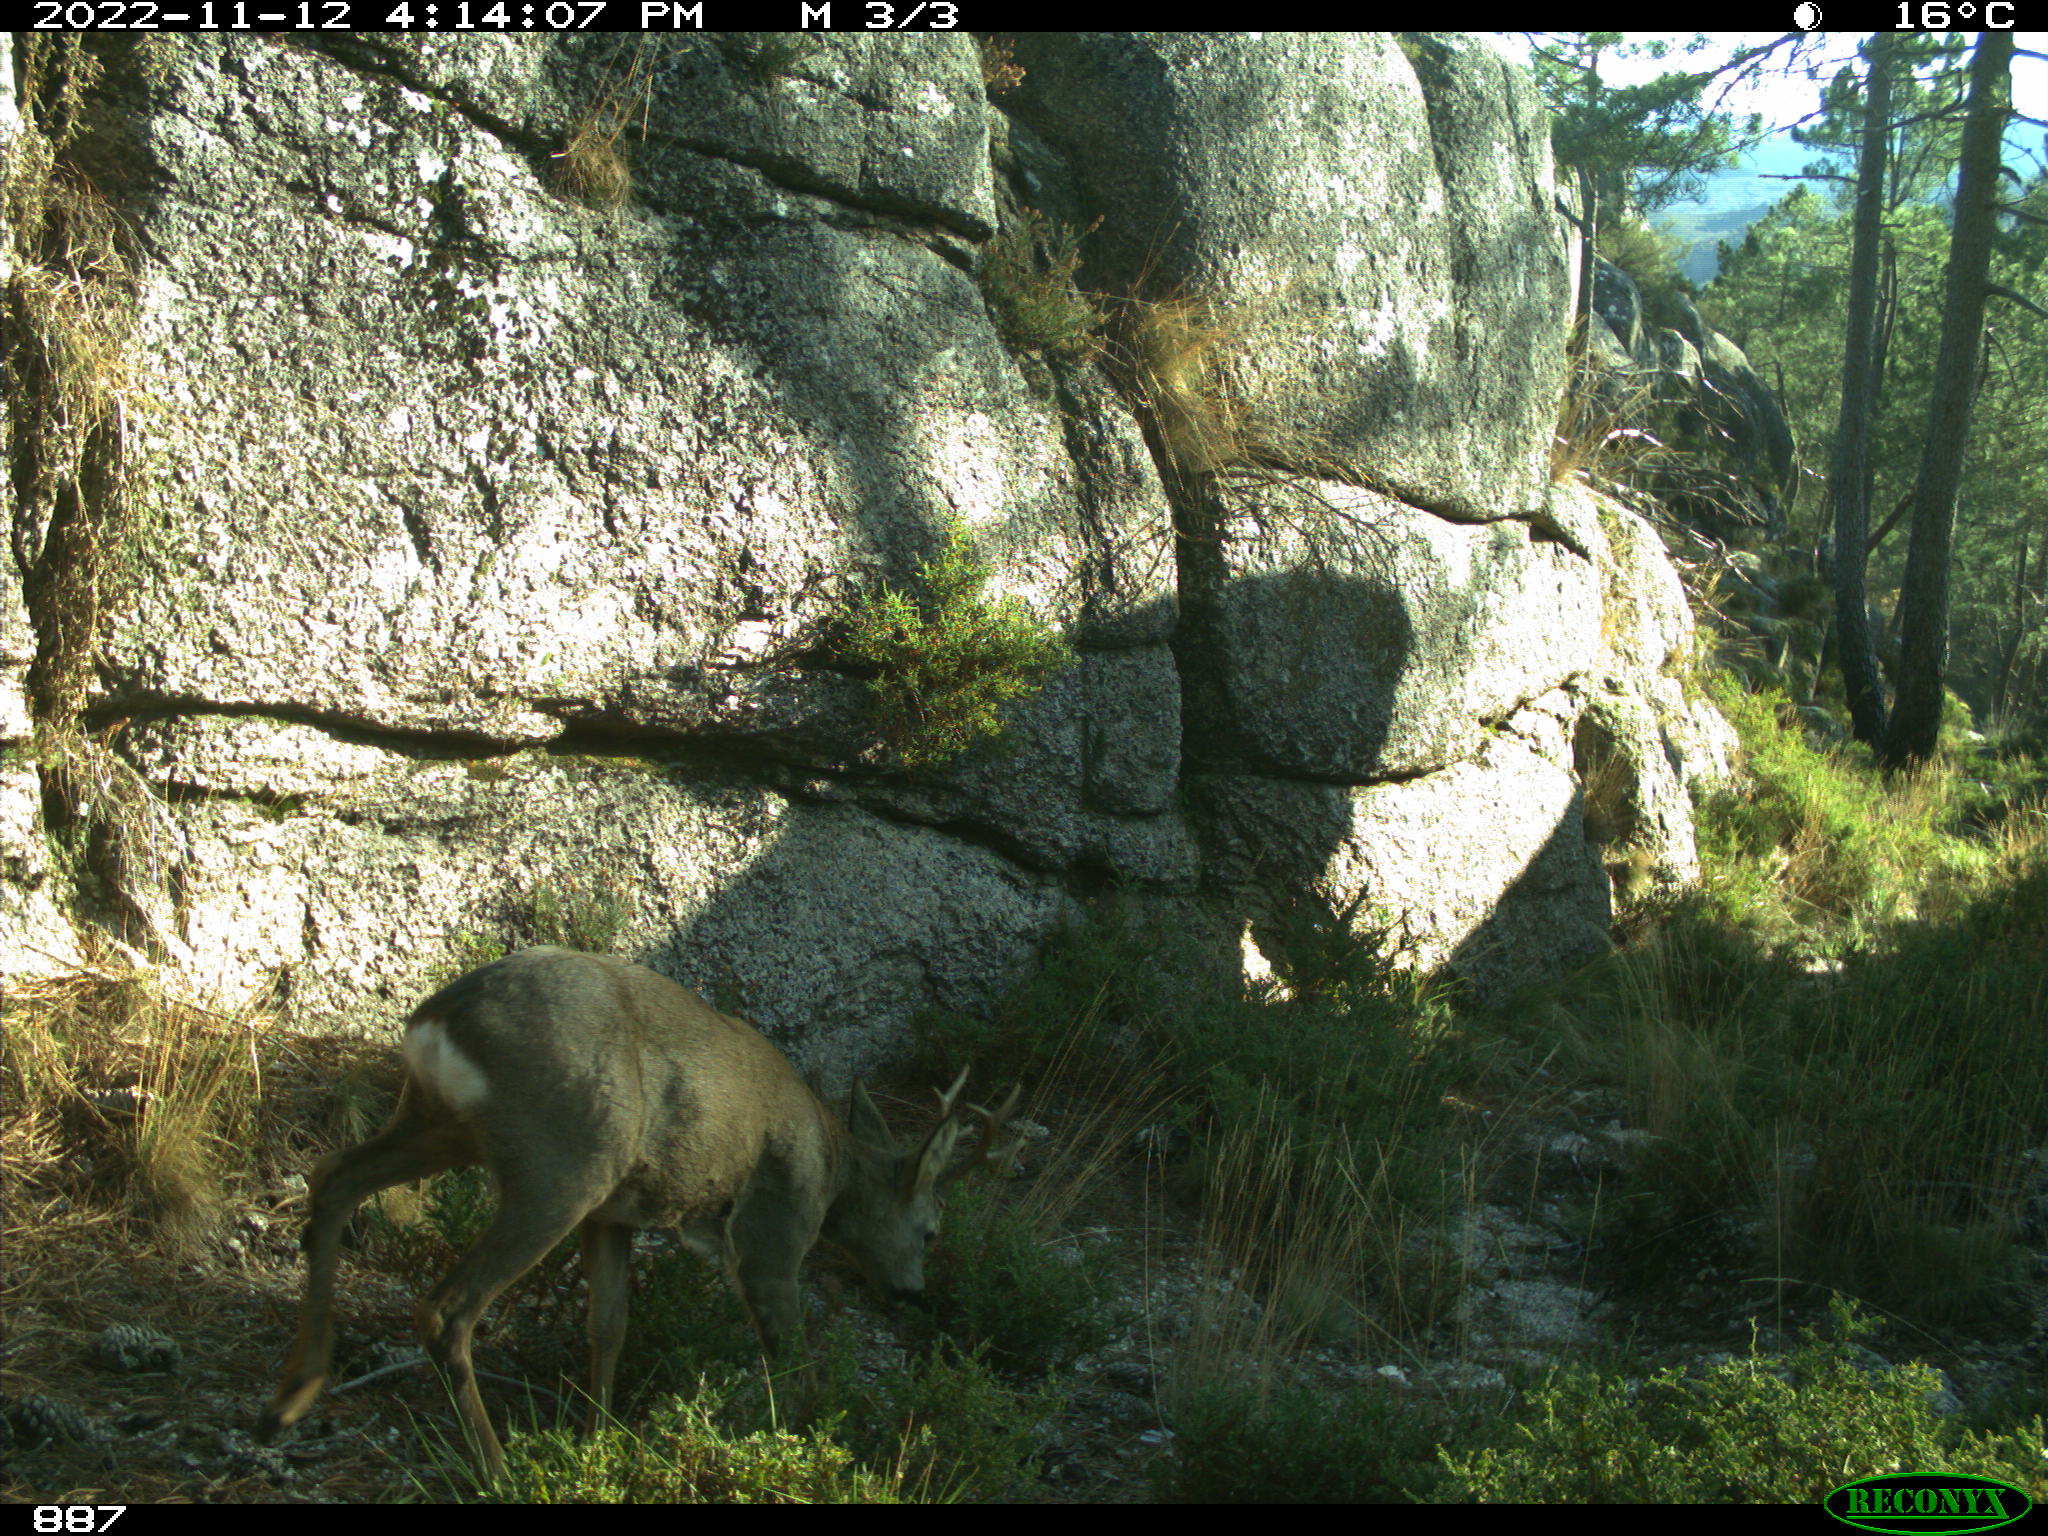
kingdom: Animalia
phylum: Chordata
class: Mammalia
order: Artiodactyla
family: Cervidae
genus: Capreolus
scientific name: Capreolus capreolus
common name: Western roe deer
